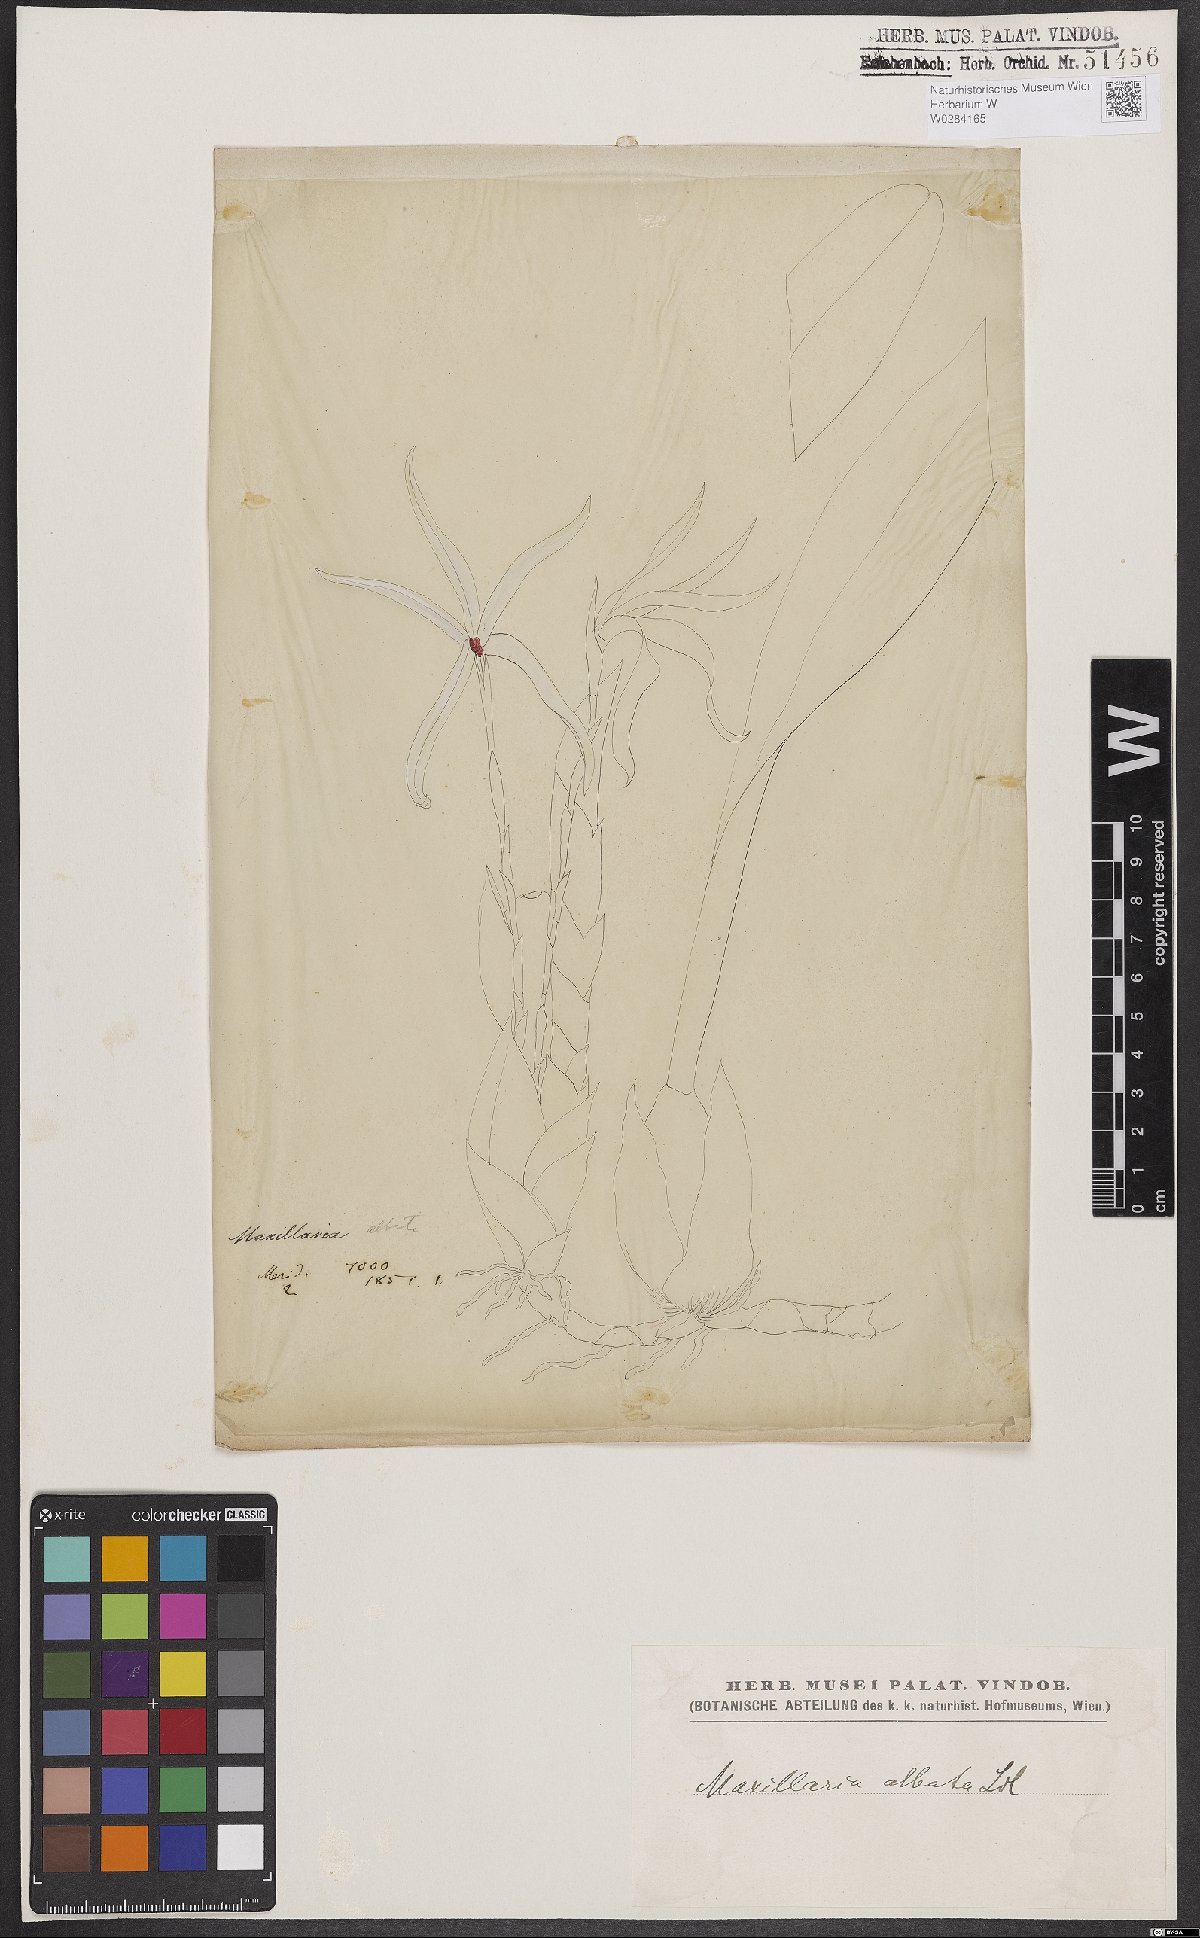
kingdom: Plantae
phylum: Tracheophyta
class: Liliopsida
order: Asparagales
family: Orchidaceae
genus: Maxillaria
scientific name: Maxillaria albata
